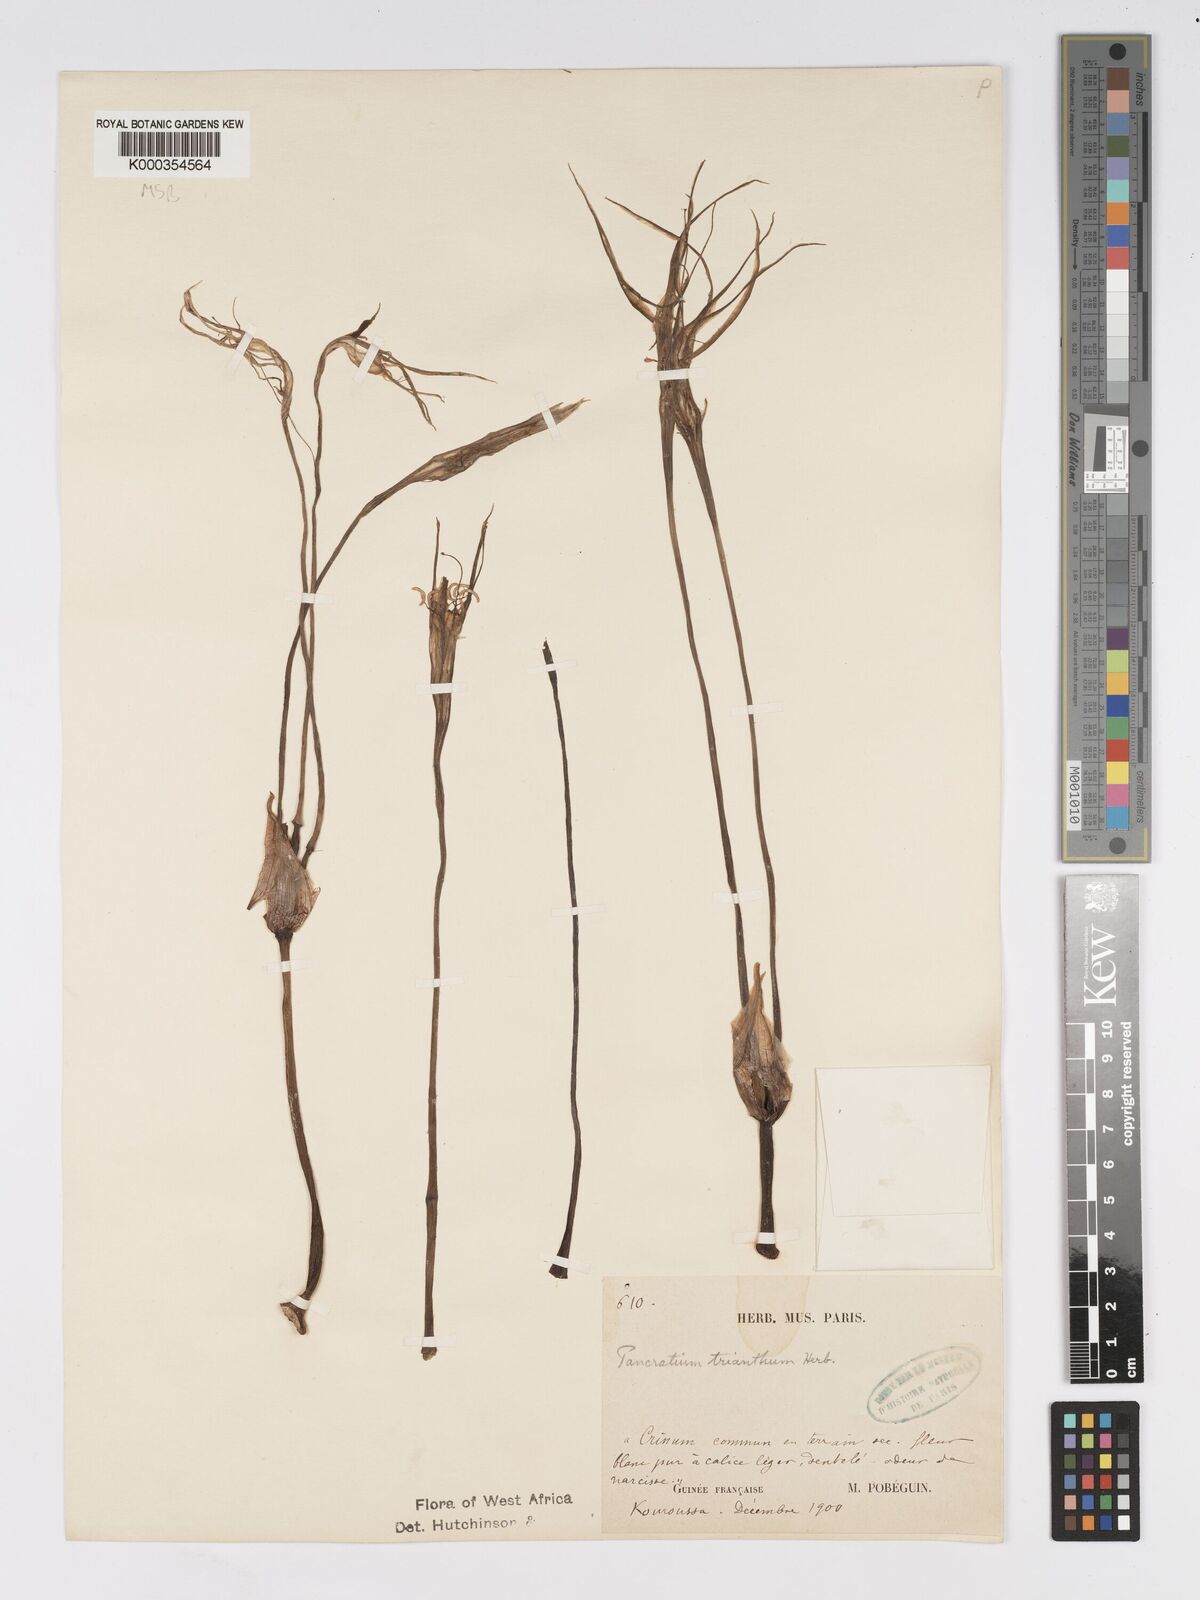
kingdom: Plantae
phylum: Tracheophyta
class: Liliopsida
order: Asparagales
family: Amaryllidaceae
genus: Pancratium
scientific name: Pancratium trianthum
